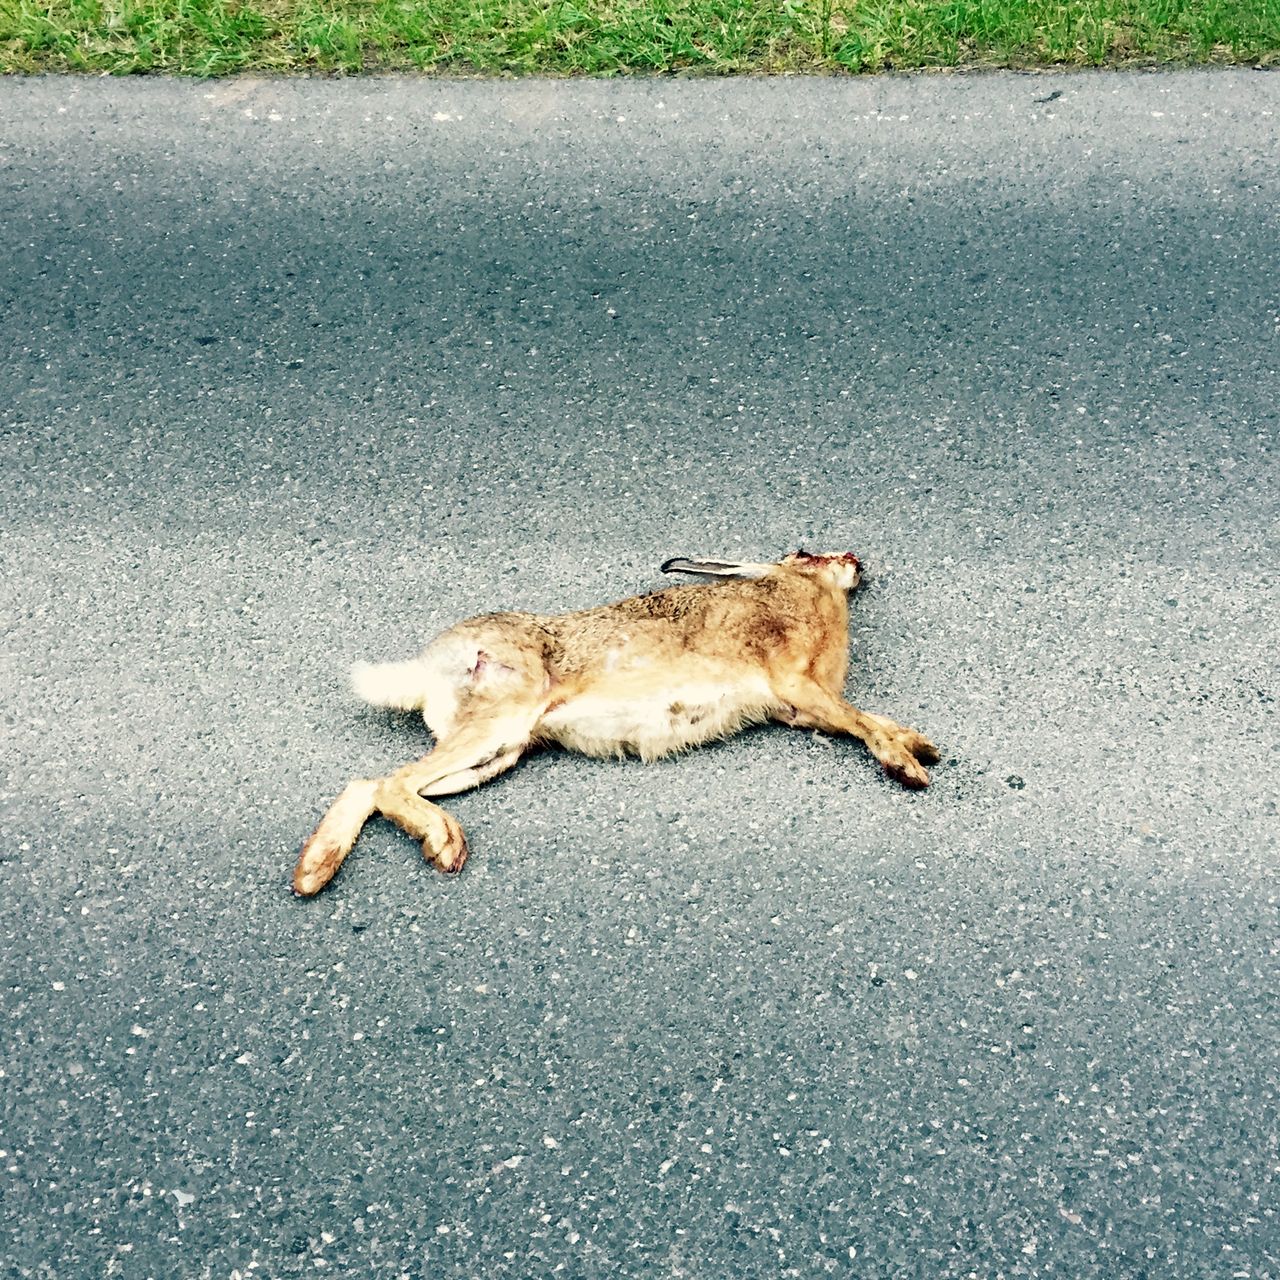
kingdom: Animalia
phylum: Chordata
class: Mammalia
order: Lagomorpha
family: Leporidae
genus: Lepus
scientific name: Lepus europaeus
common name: European hare
